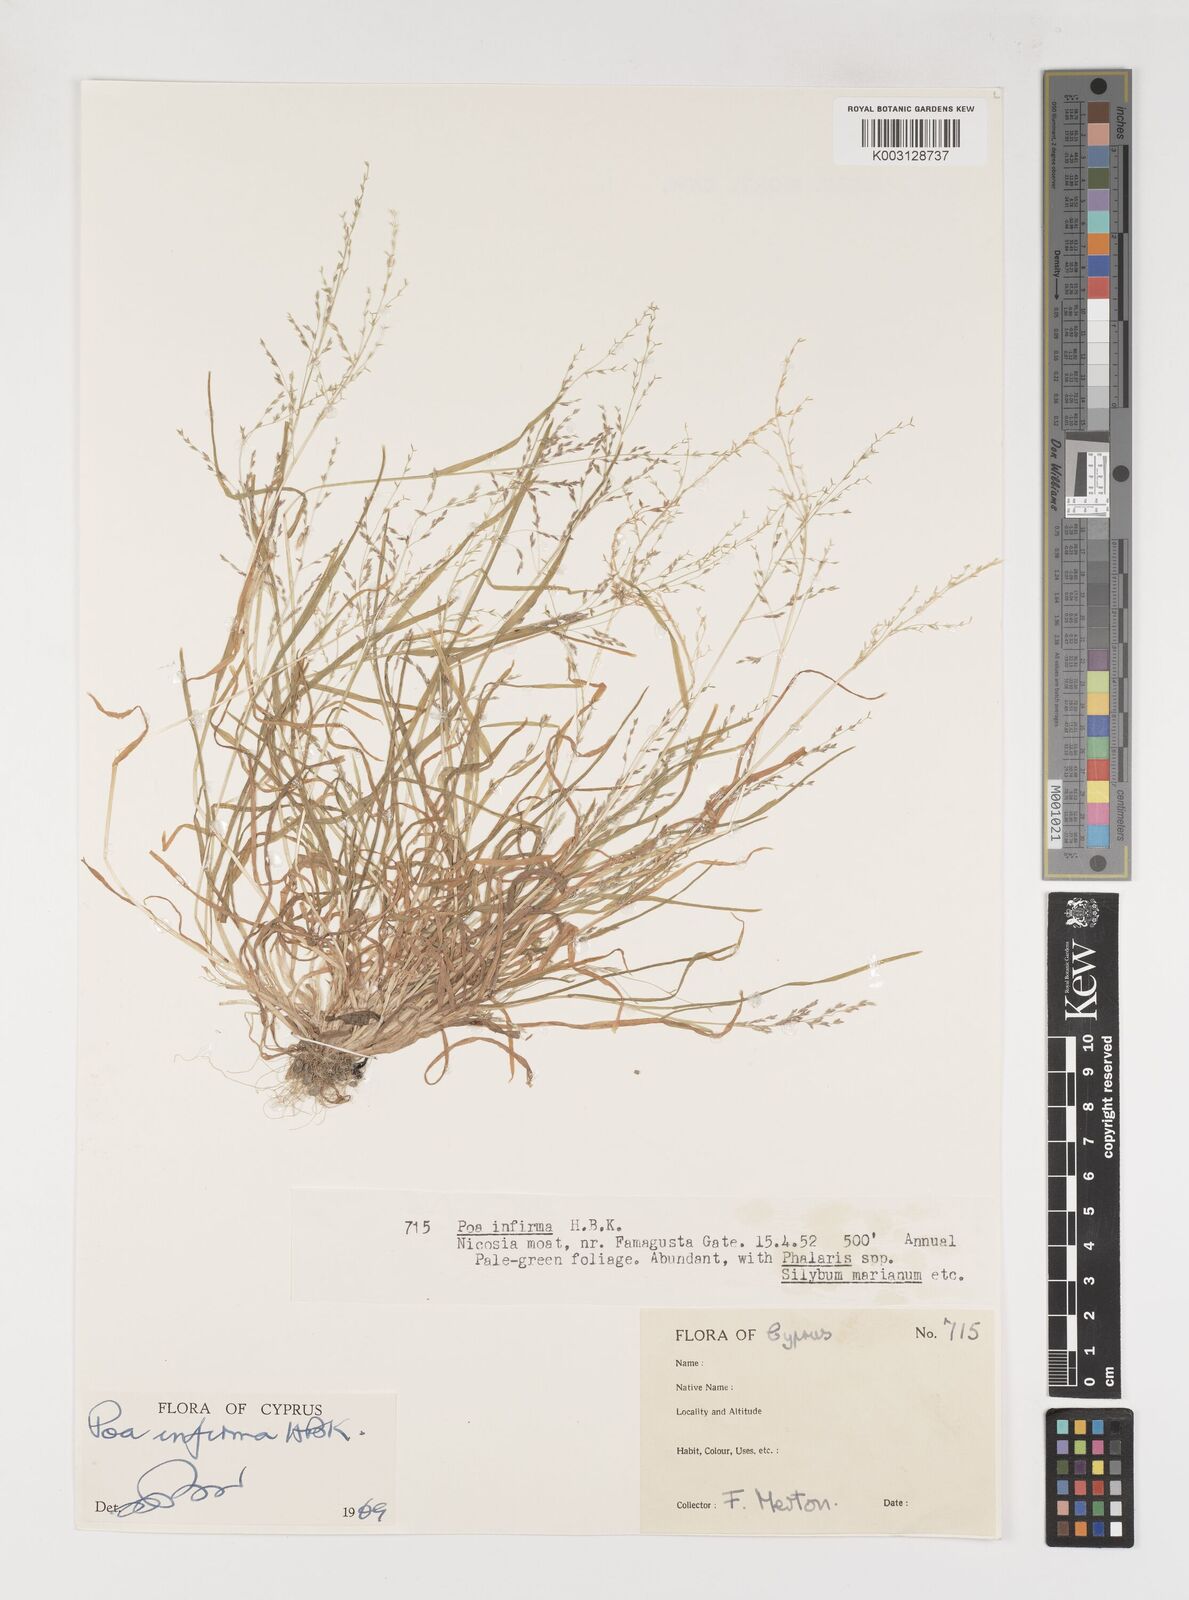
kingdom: Plantae
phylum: Tracheophyta
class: Liliopsida
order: Poales
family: Poaceae
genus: Poa
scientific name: Poa infirma
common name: Weak bluegrass
